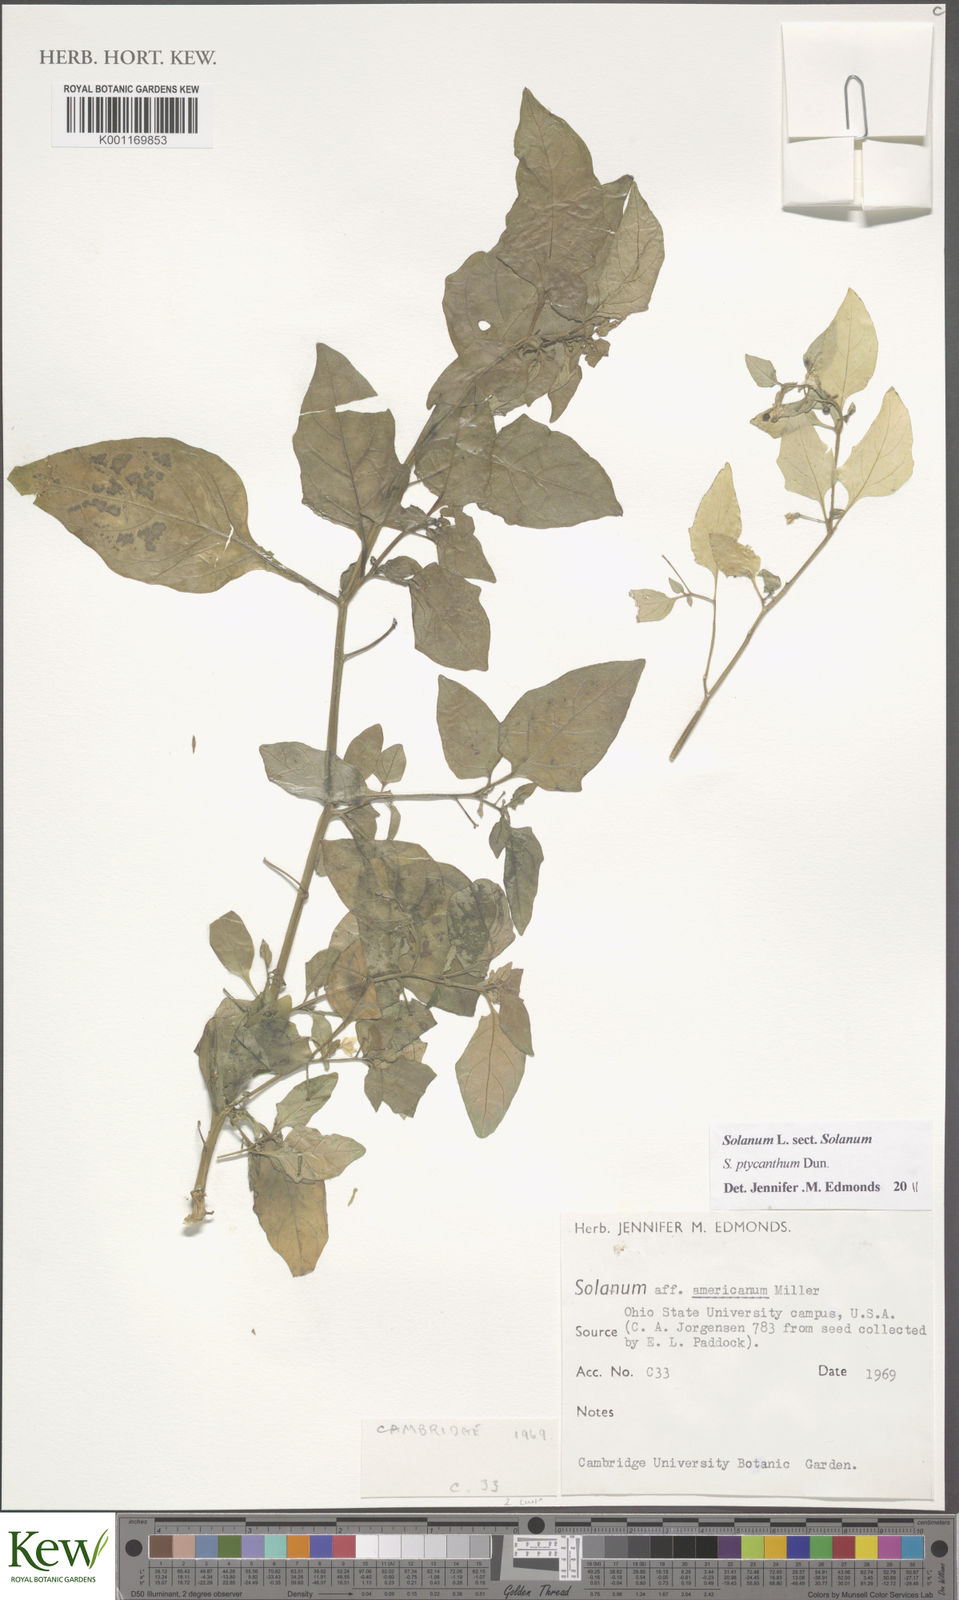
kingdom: Plantae
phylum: Tracheophyta
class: Magnoliopsida
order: Solanales
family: Solanaceae
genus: Solanum
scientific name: Solanum americanum
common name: American black nightshade
